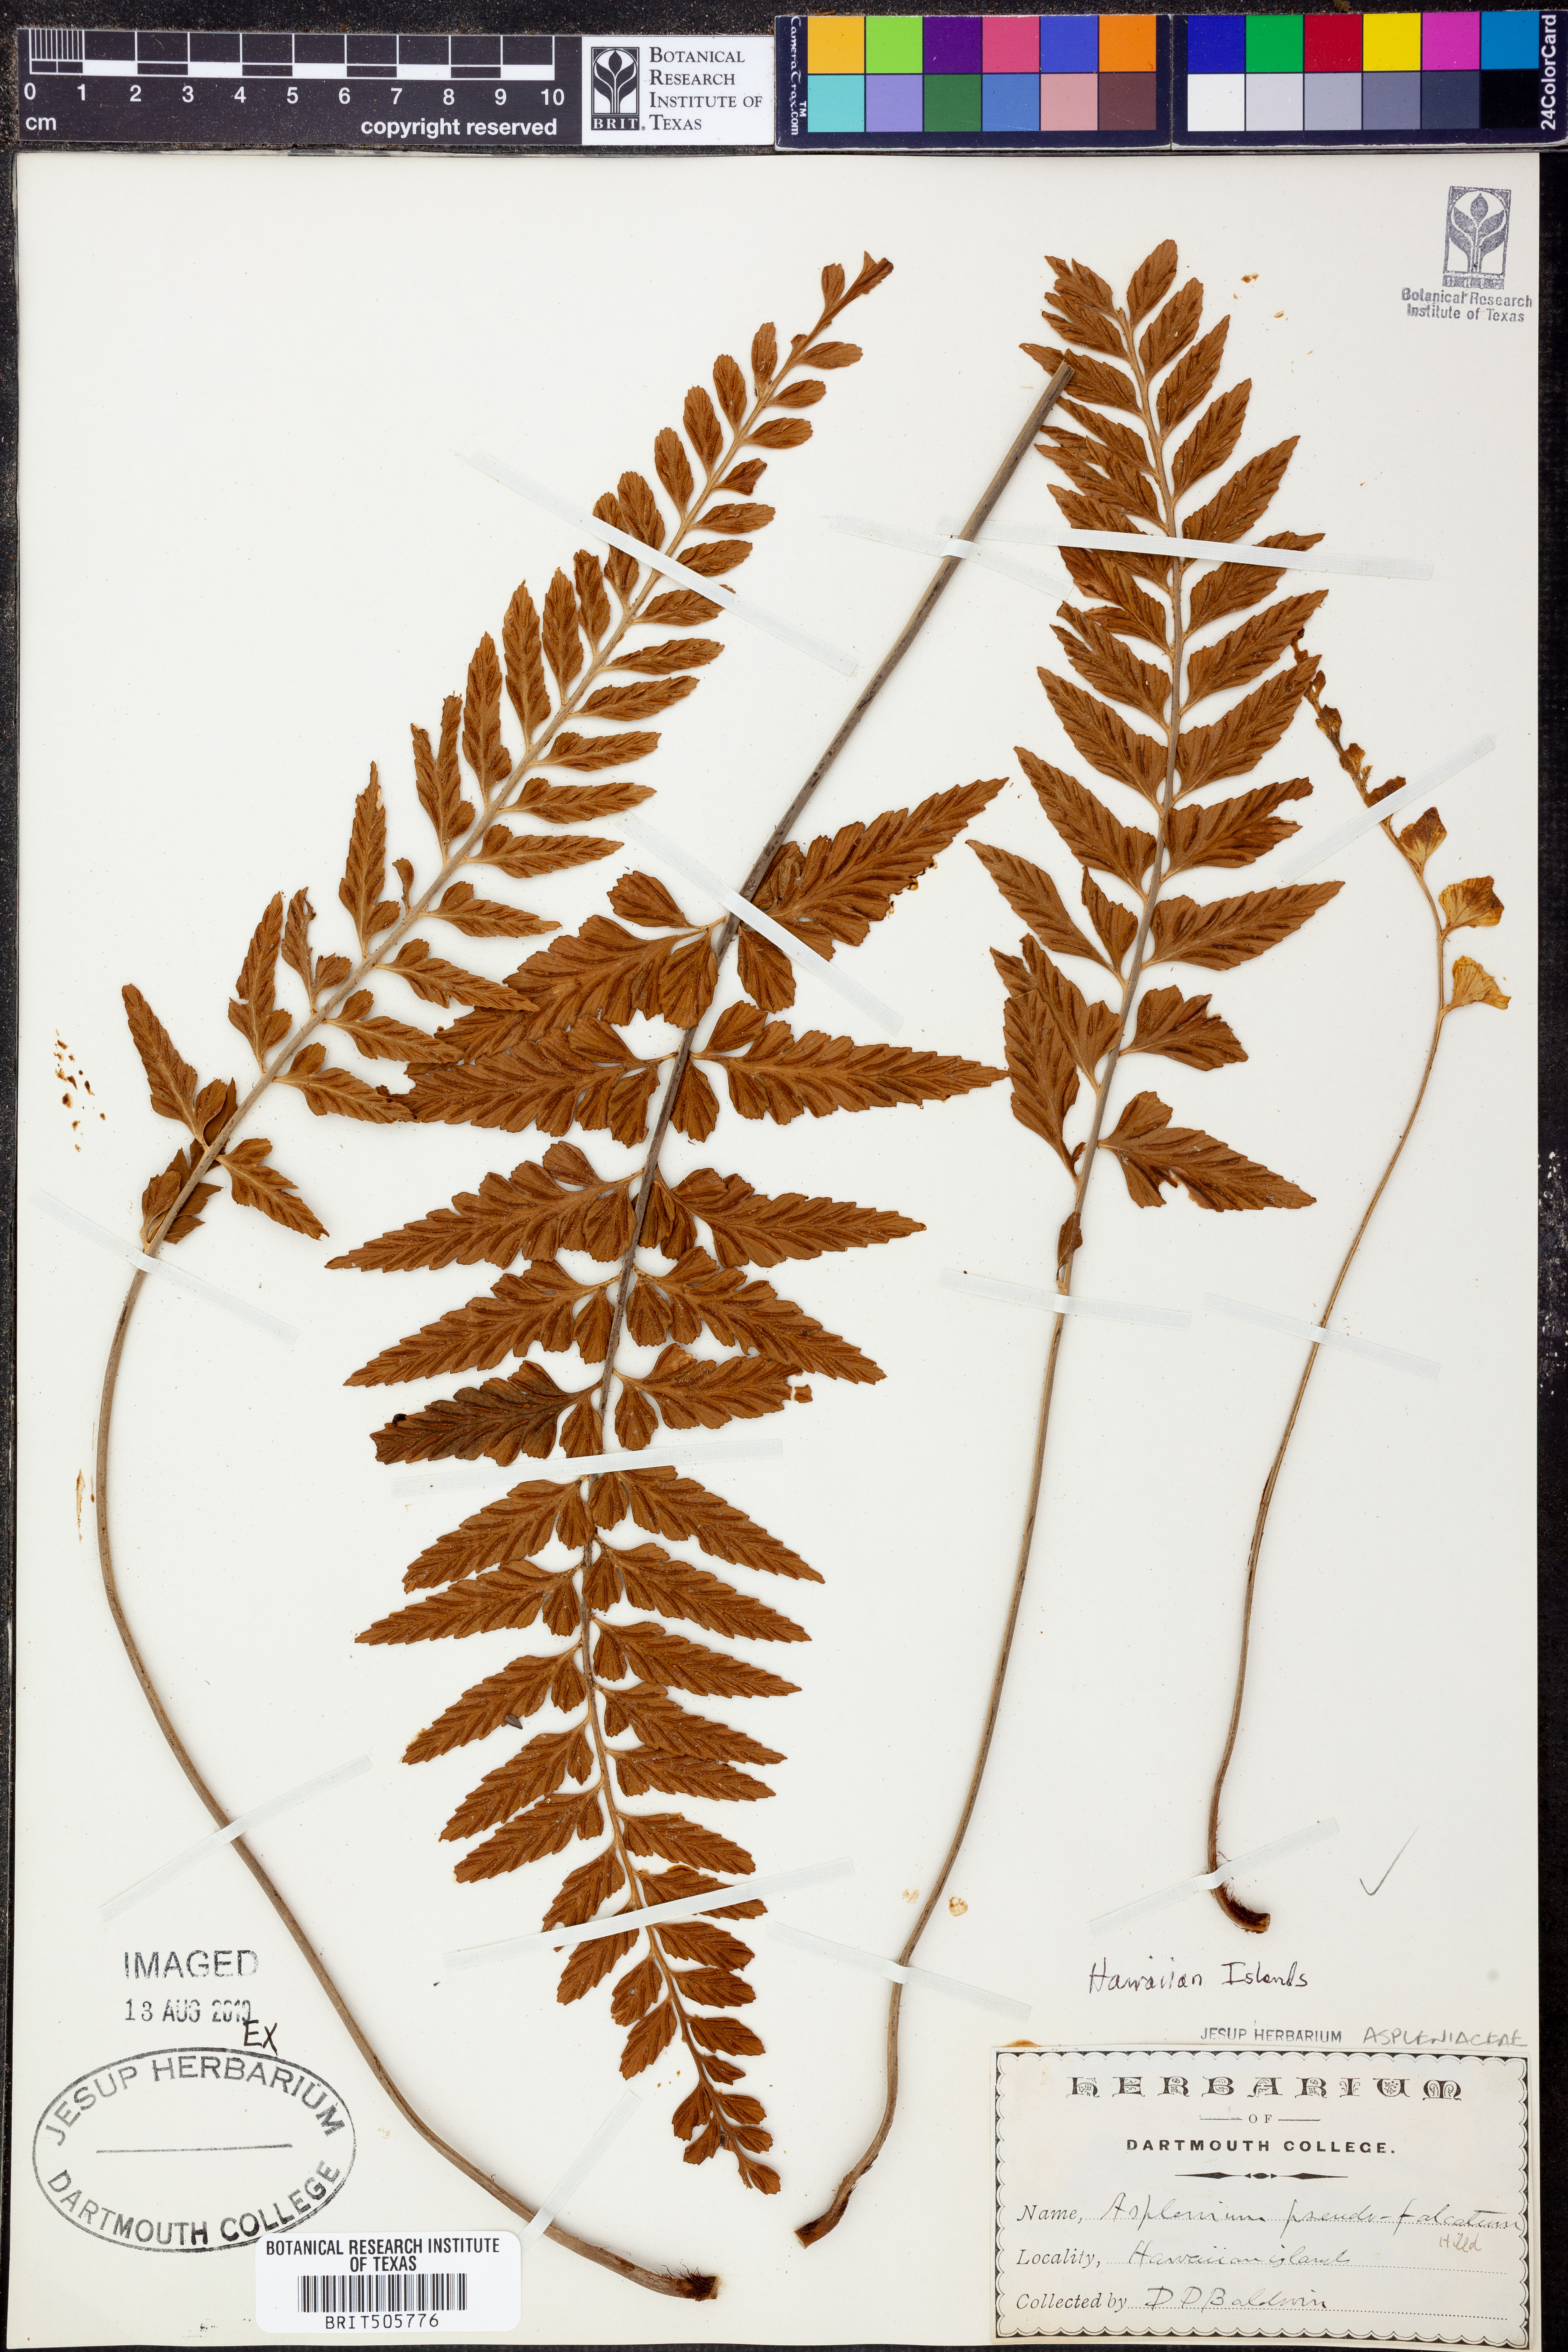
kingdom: Plantae
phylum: Tracheophyta
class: Polypodiopsida
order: Polypodiales
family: Aspleniaceae
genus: Asplenium
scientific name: Asplenium lobulatum
